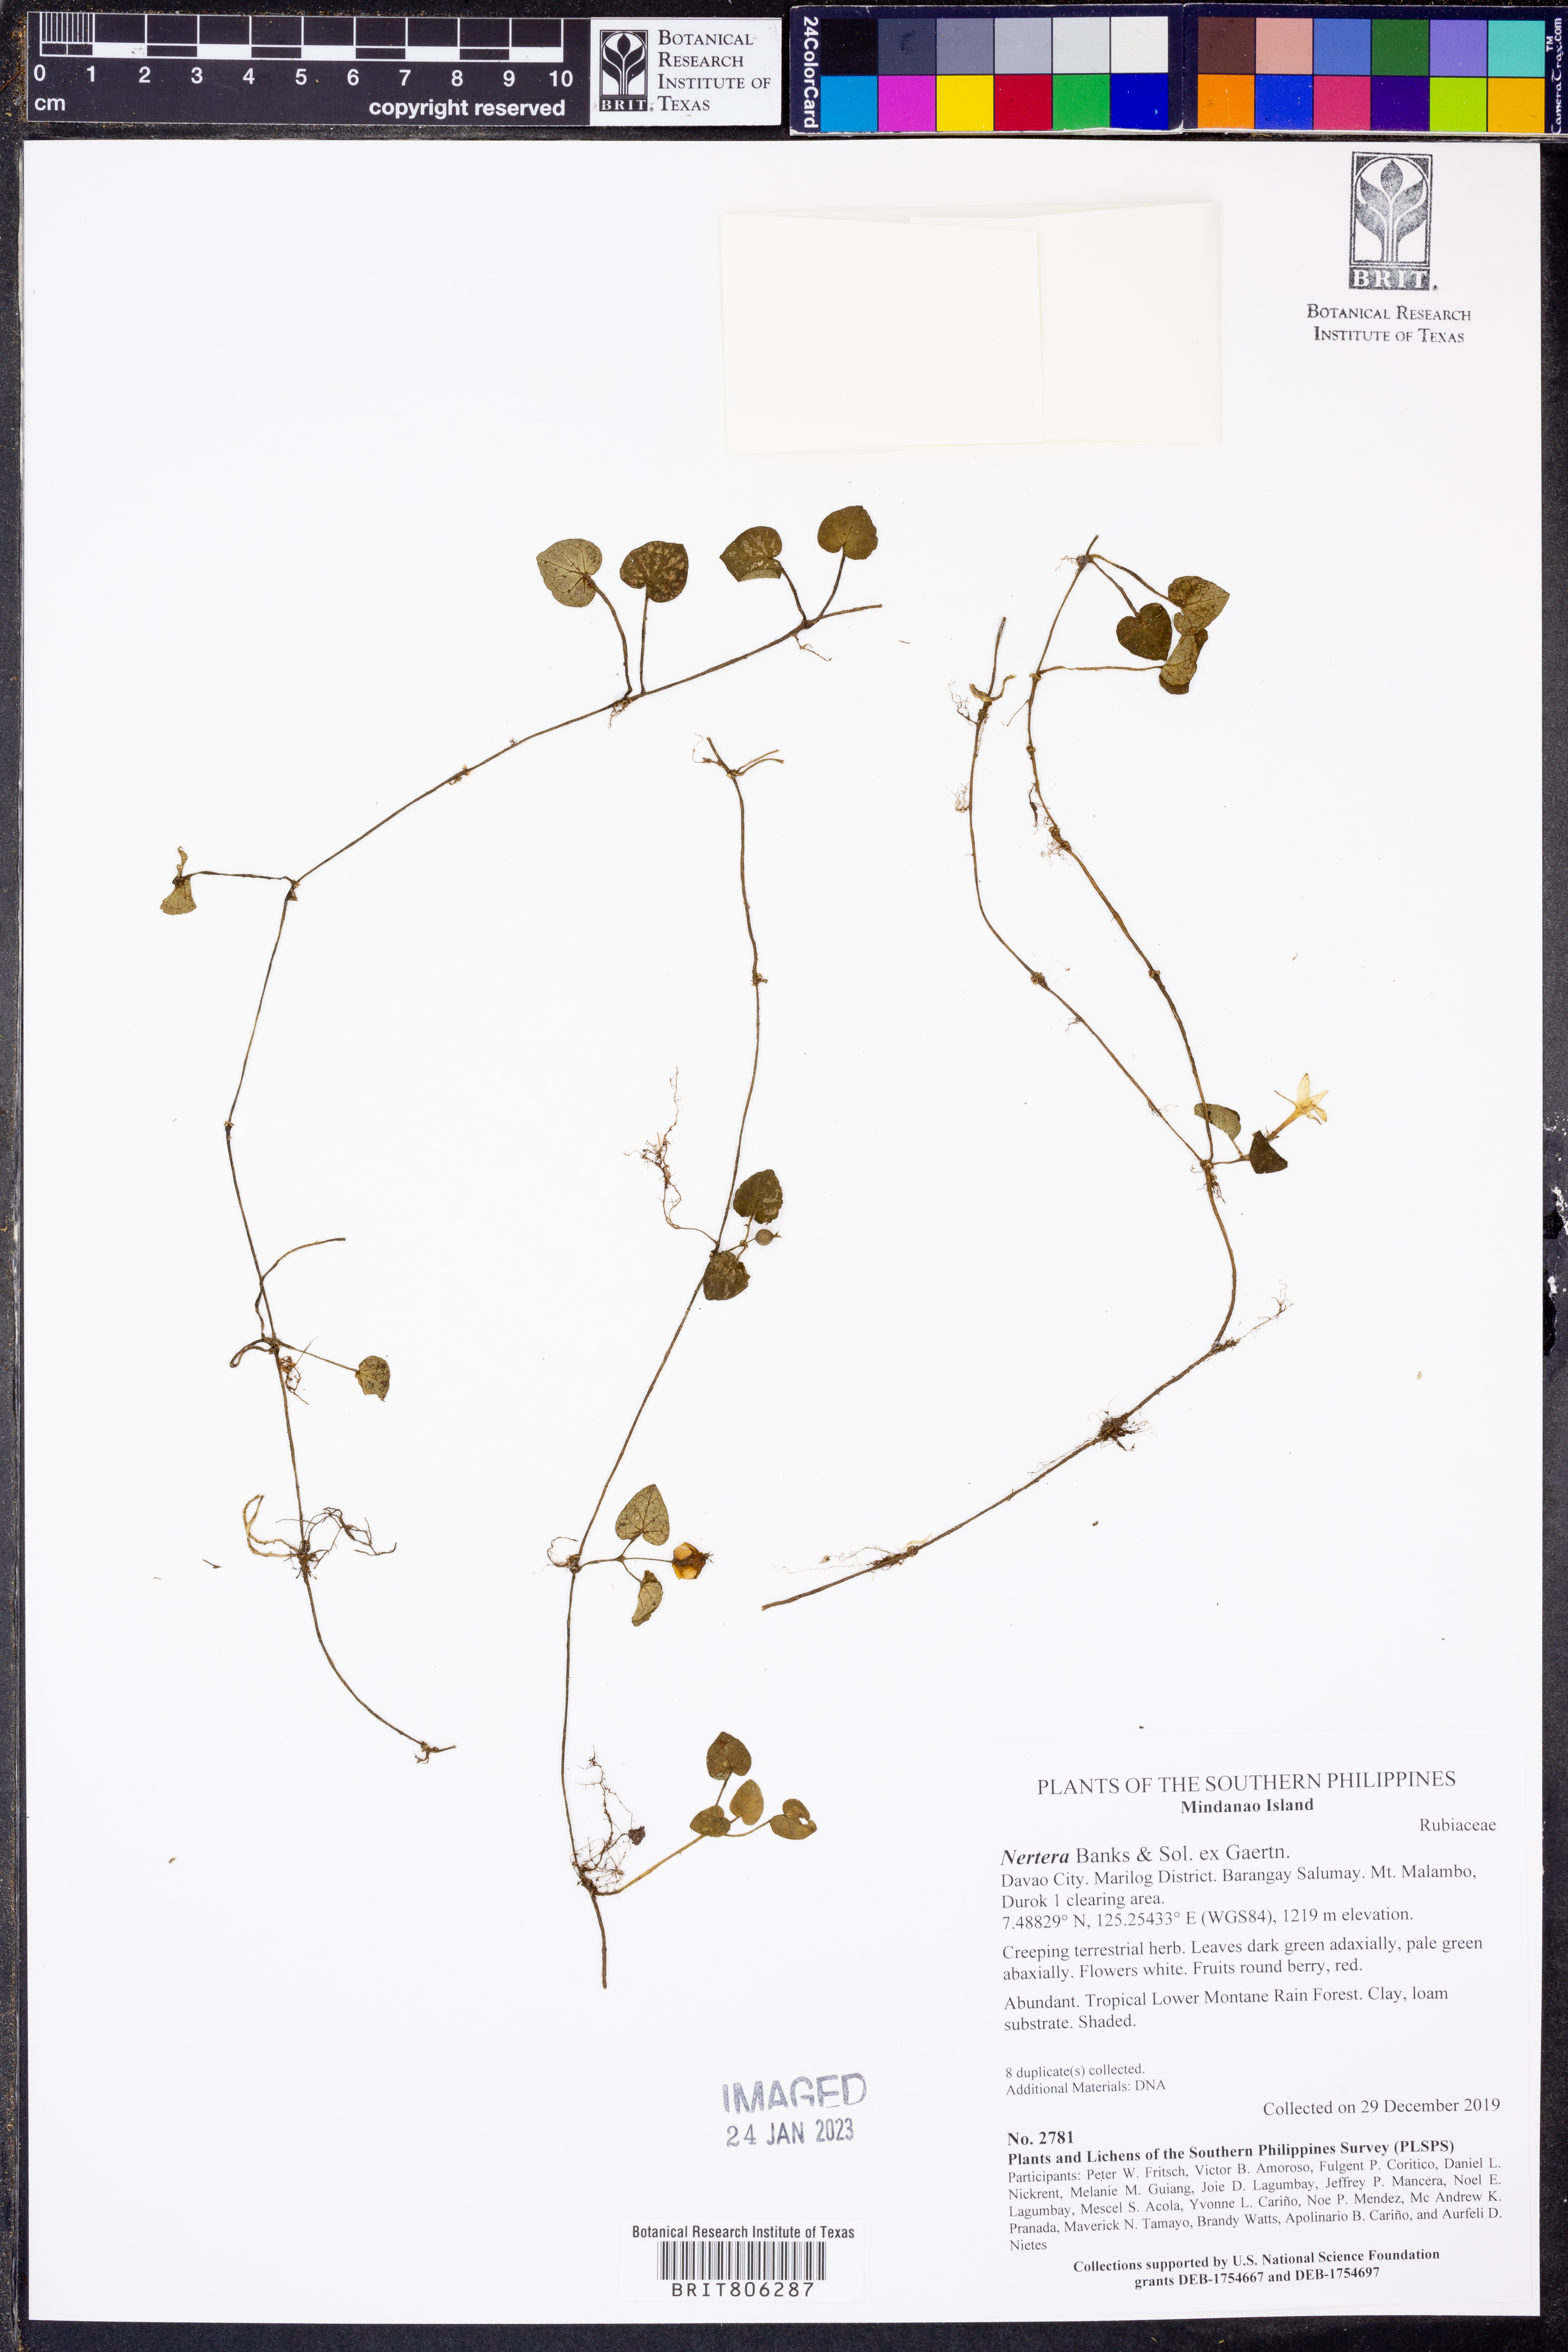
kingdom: Plantae
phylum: Tracheophyta
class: Magnoliopsida
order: Gentianales
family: Rubiaceae
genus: Nertera
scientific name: Nertera
